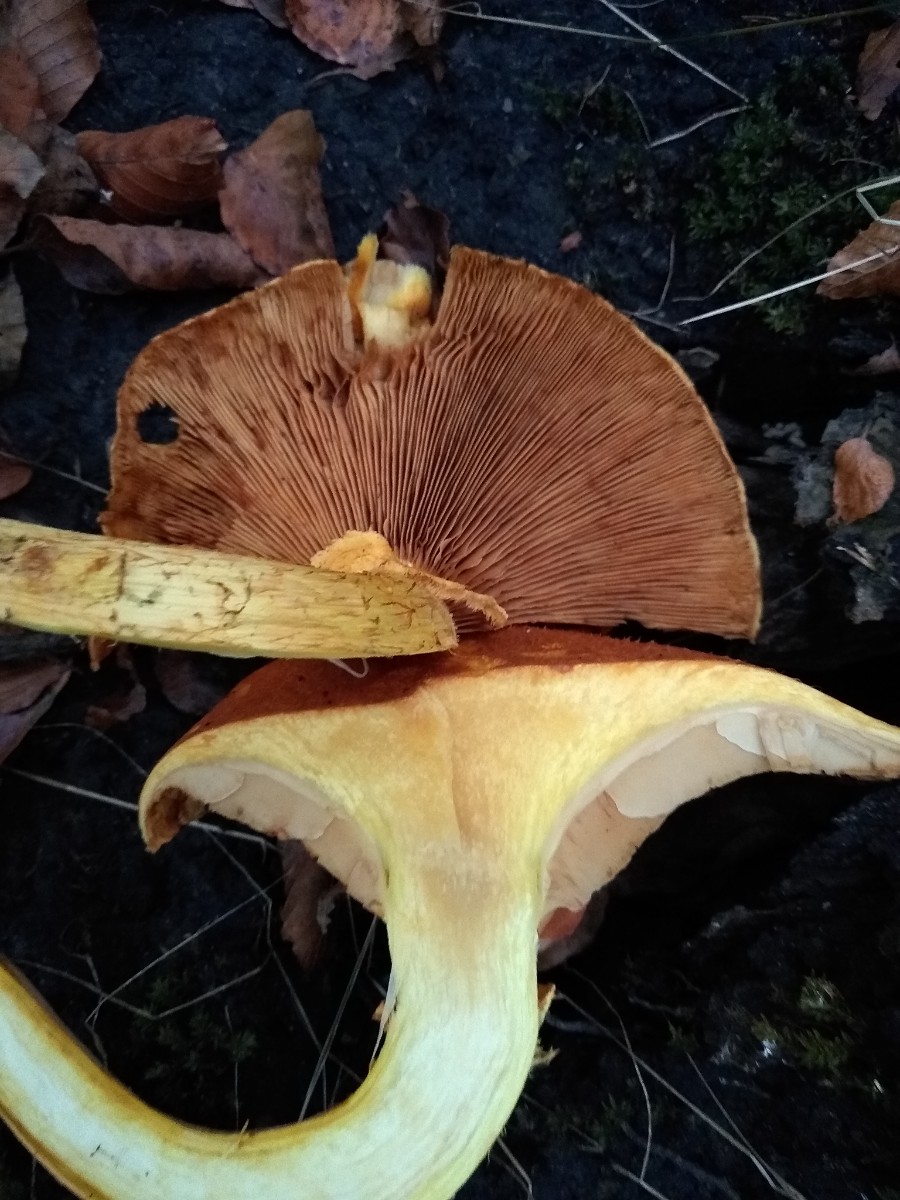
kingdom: Fungi
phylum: Basidiomycota
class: Agaricomycetes
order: Agaricales
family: Hymenogastraceae
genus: Gymnopilus
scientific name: Gymnopilus spectabilis
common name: fibret flammehat
